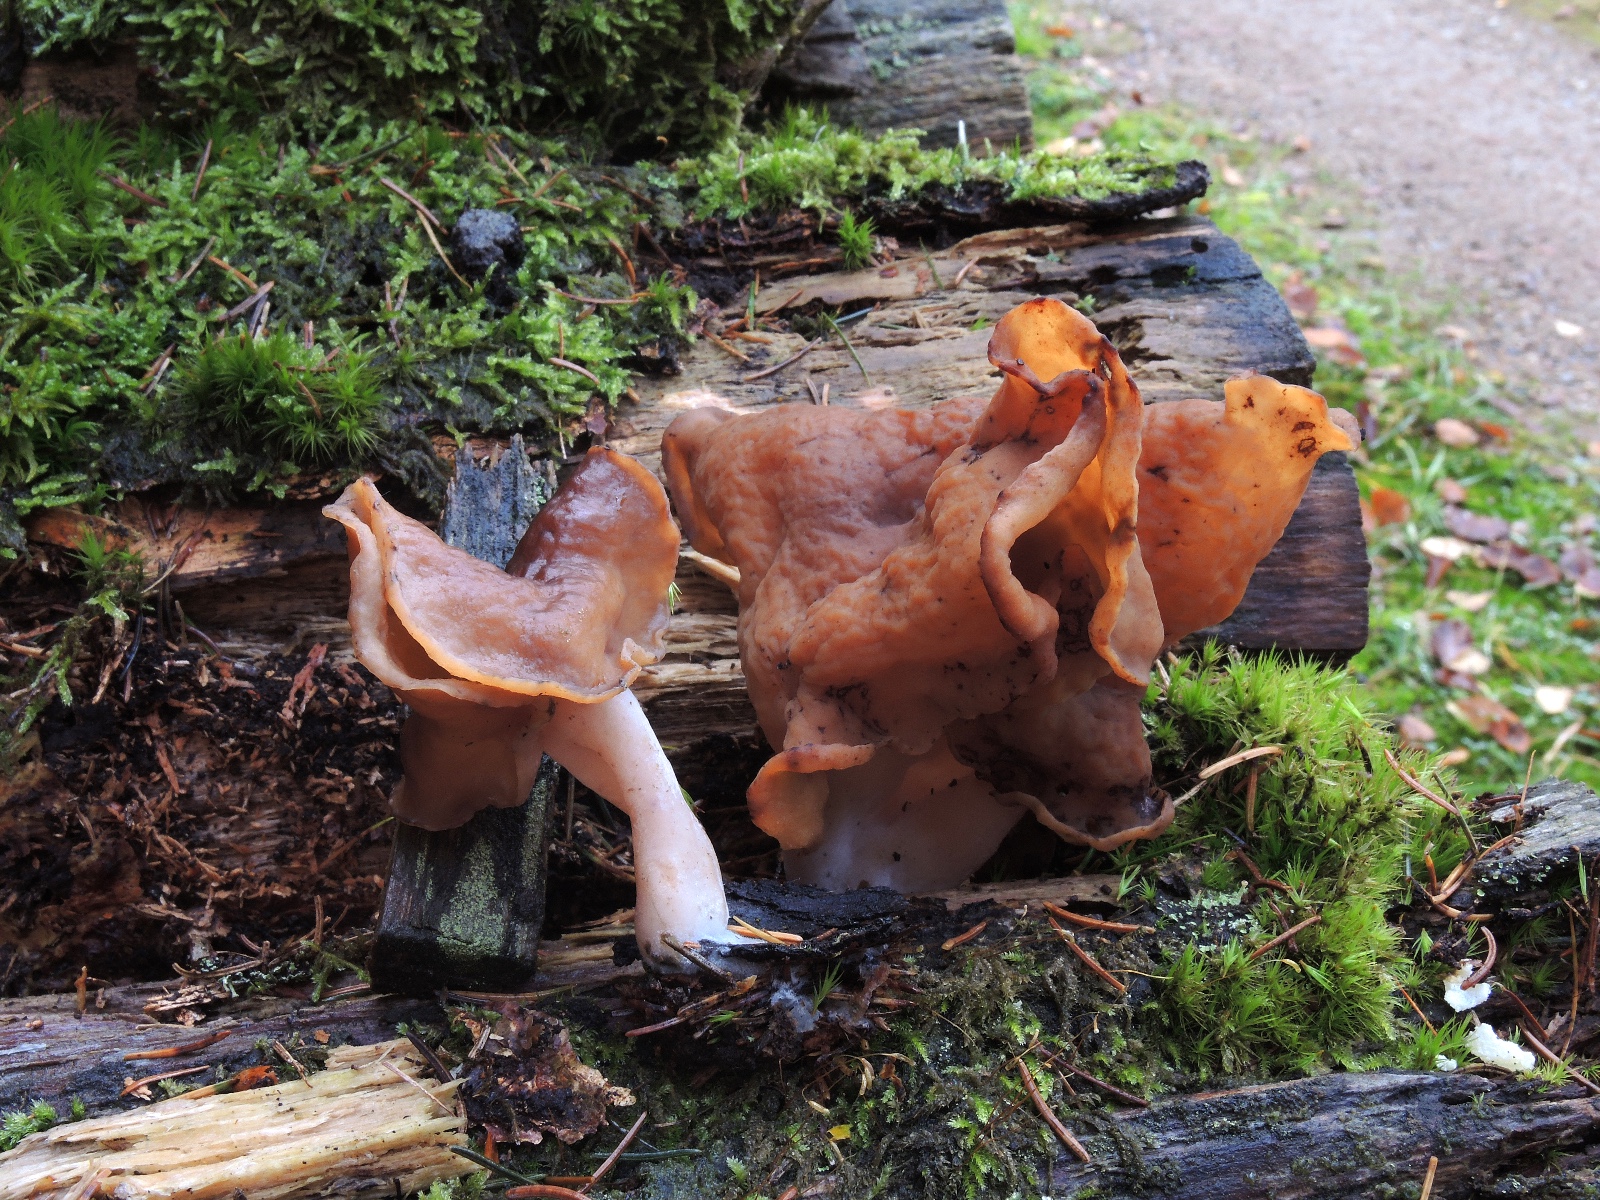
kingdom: Fungi
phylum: Ascomycota
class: Pezizomycetes
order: Pezizales
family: Discinaceae
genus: Gyromitra
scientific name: Gyromitra infula
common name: bispehue-stenmorkel
